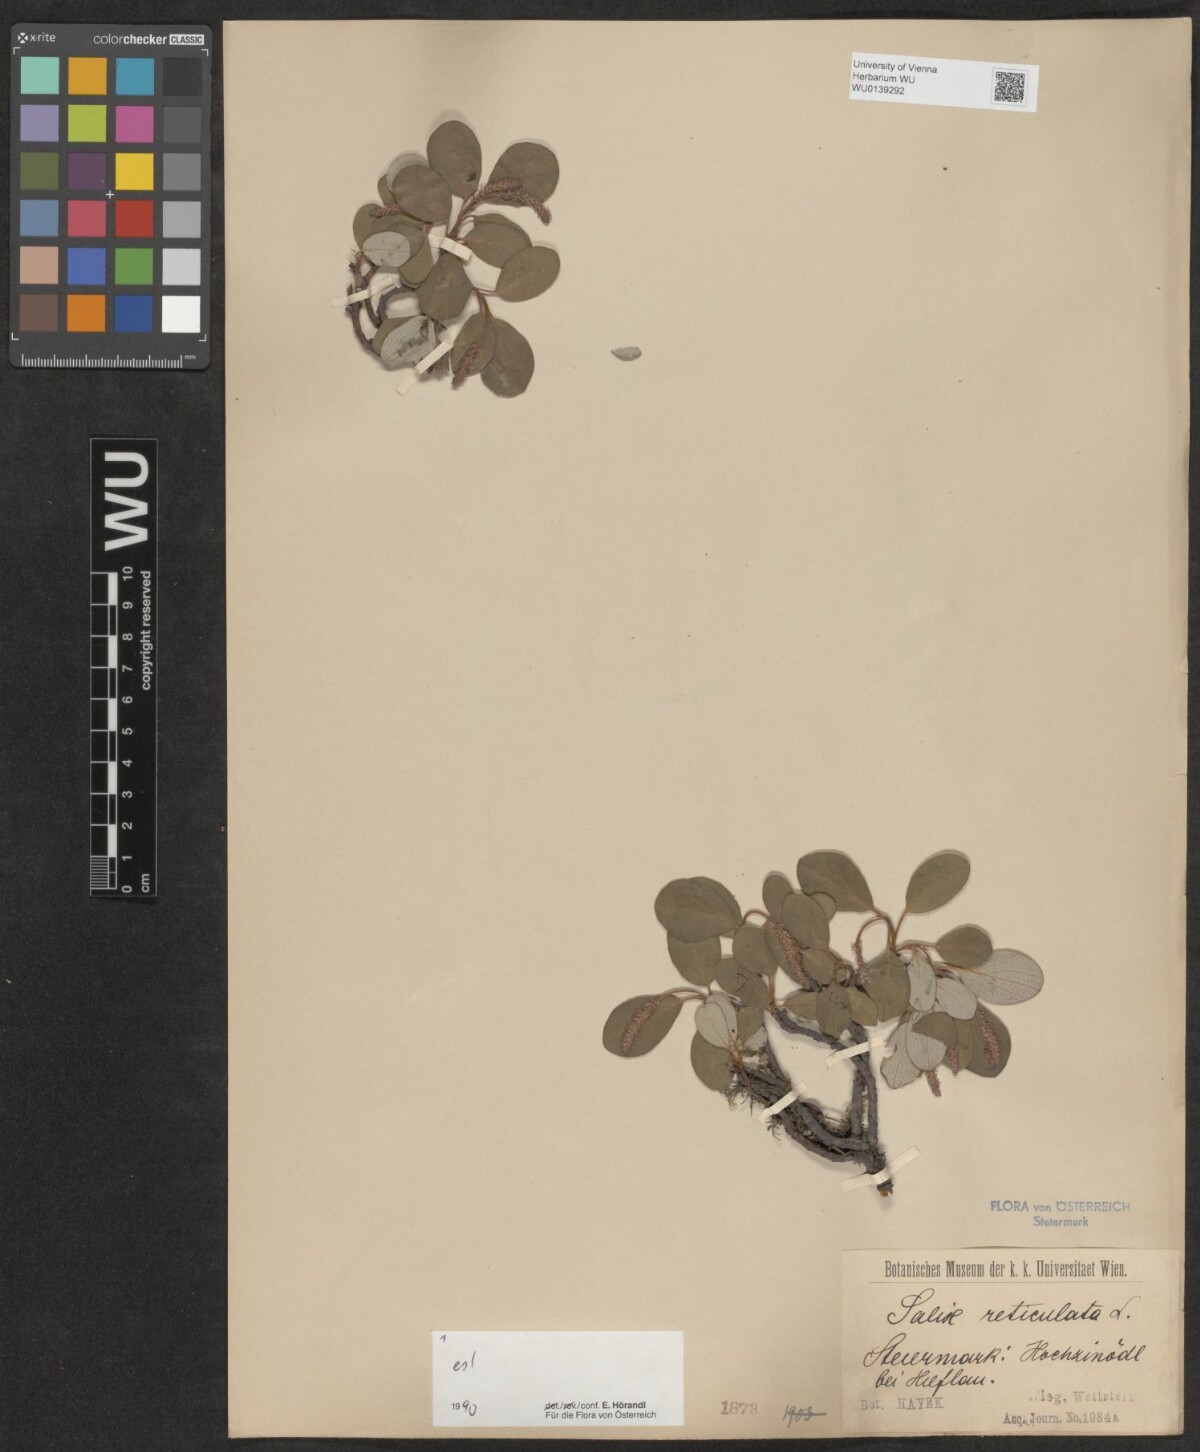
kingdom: Plantae
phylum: Tracheophyta
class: Magnoliopsida
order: Malpighiales
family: Salicaceae
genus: Salix
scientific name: Salix reticulata
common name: Net-leaved willow
